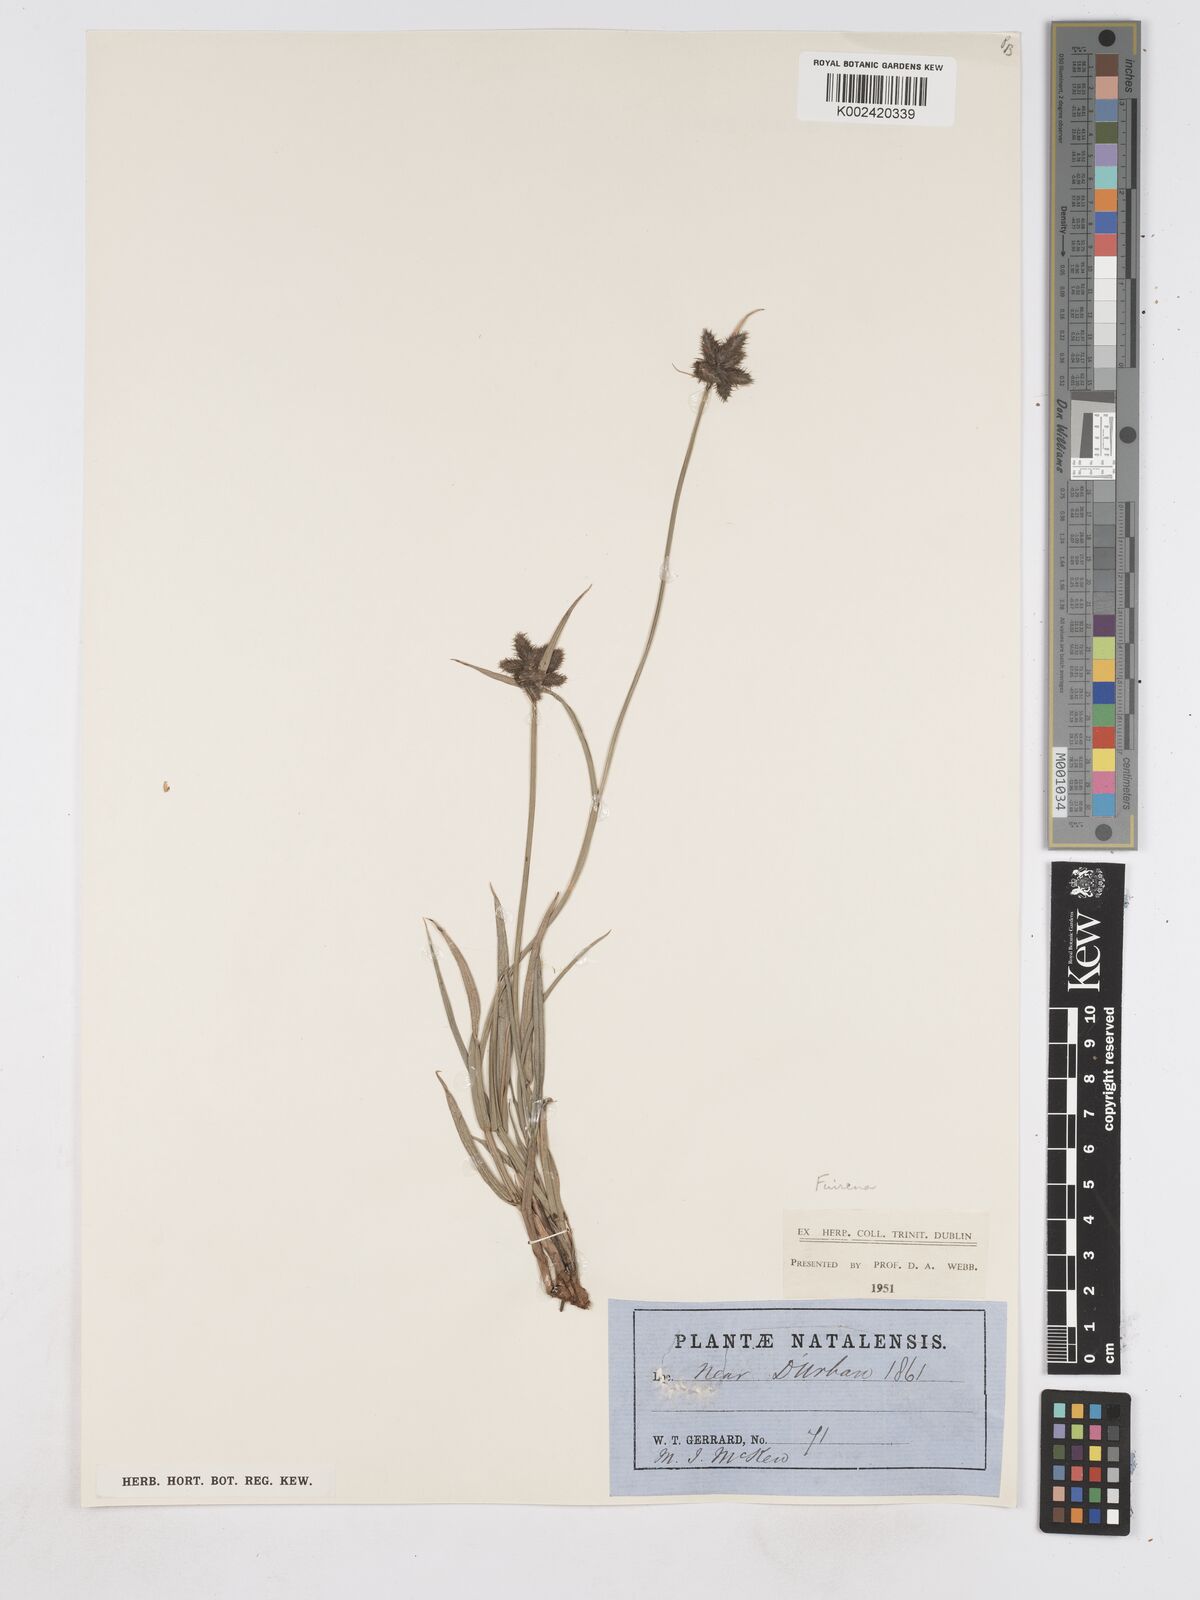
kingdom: Plantae
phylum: Tracheophyta
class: Liliopsida
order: Poales
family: Cyperaceae
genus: Fuirena
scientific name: Fuirena
